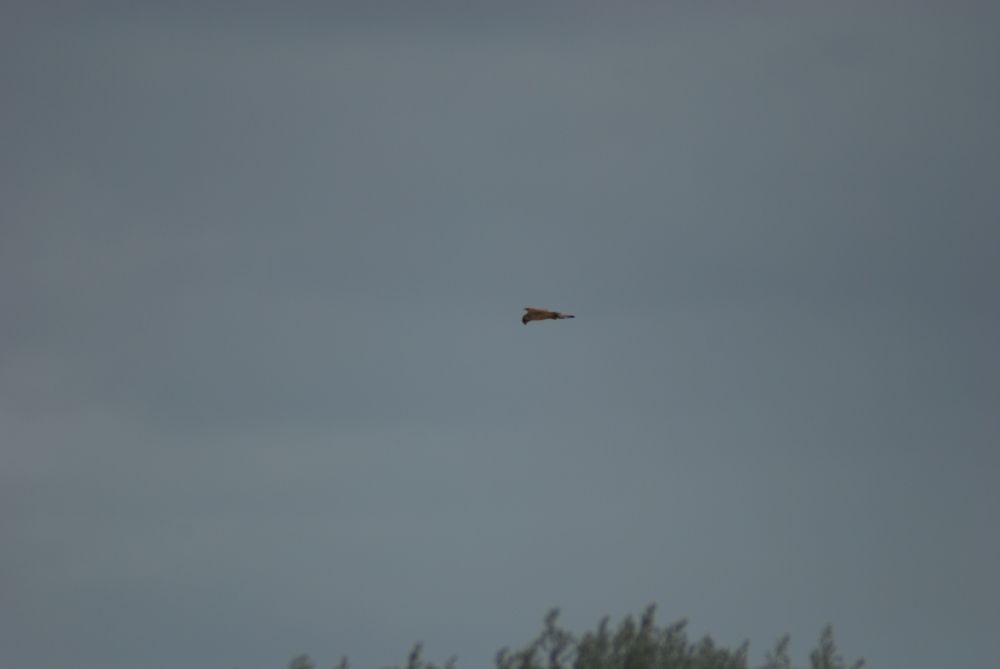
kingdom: Animalia
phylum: Chordata
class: Aves
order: Falconiformes
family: Falconidae
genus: Falco
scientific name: Falco
